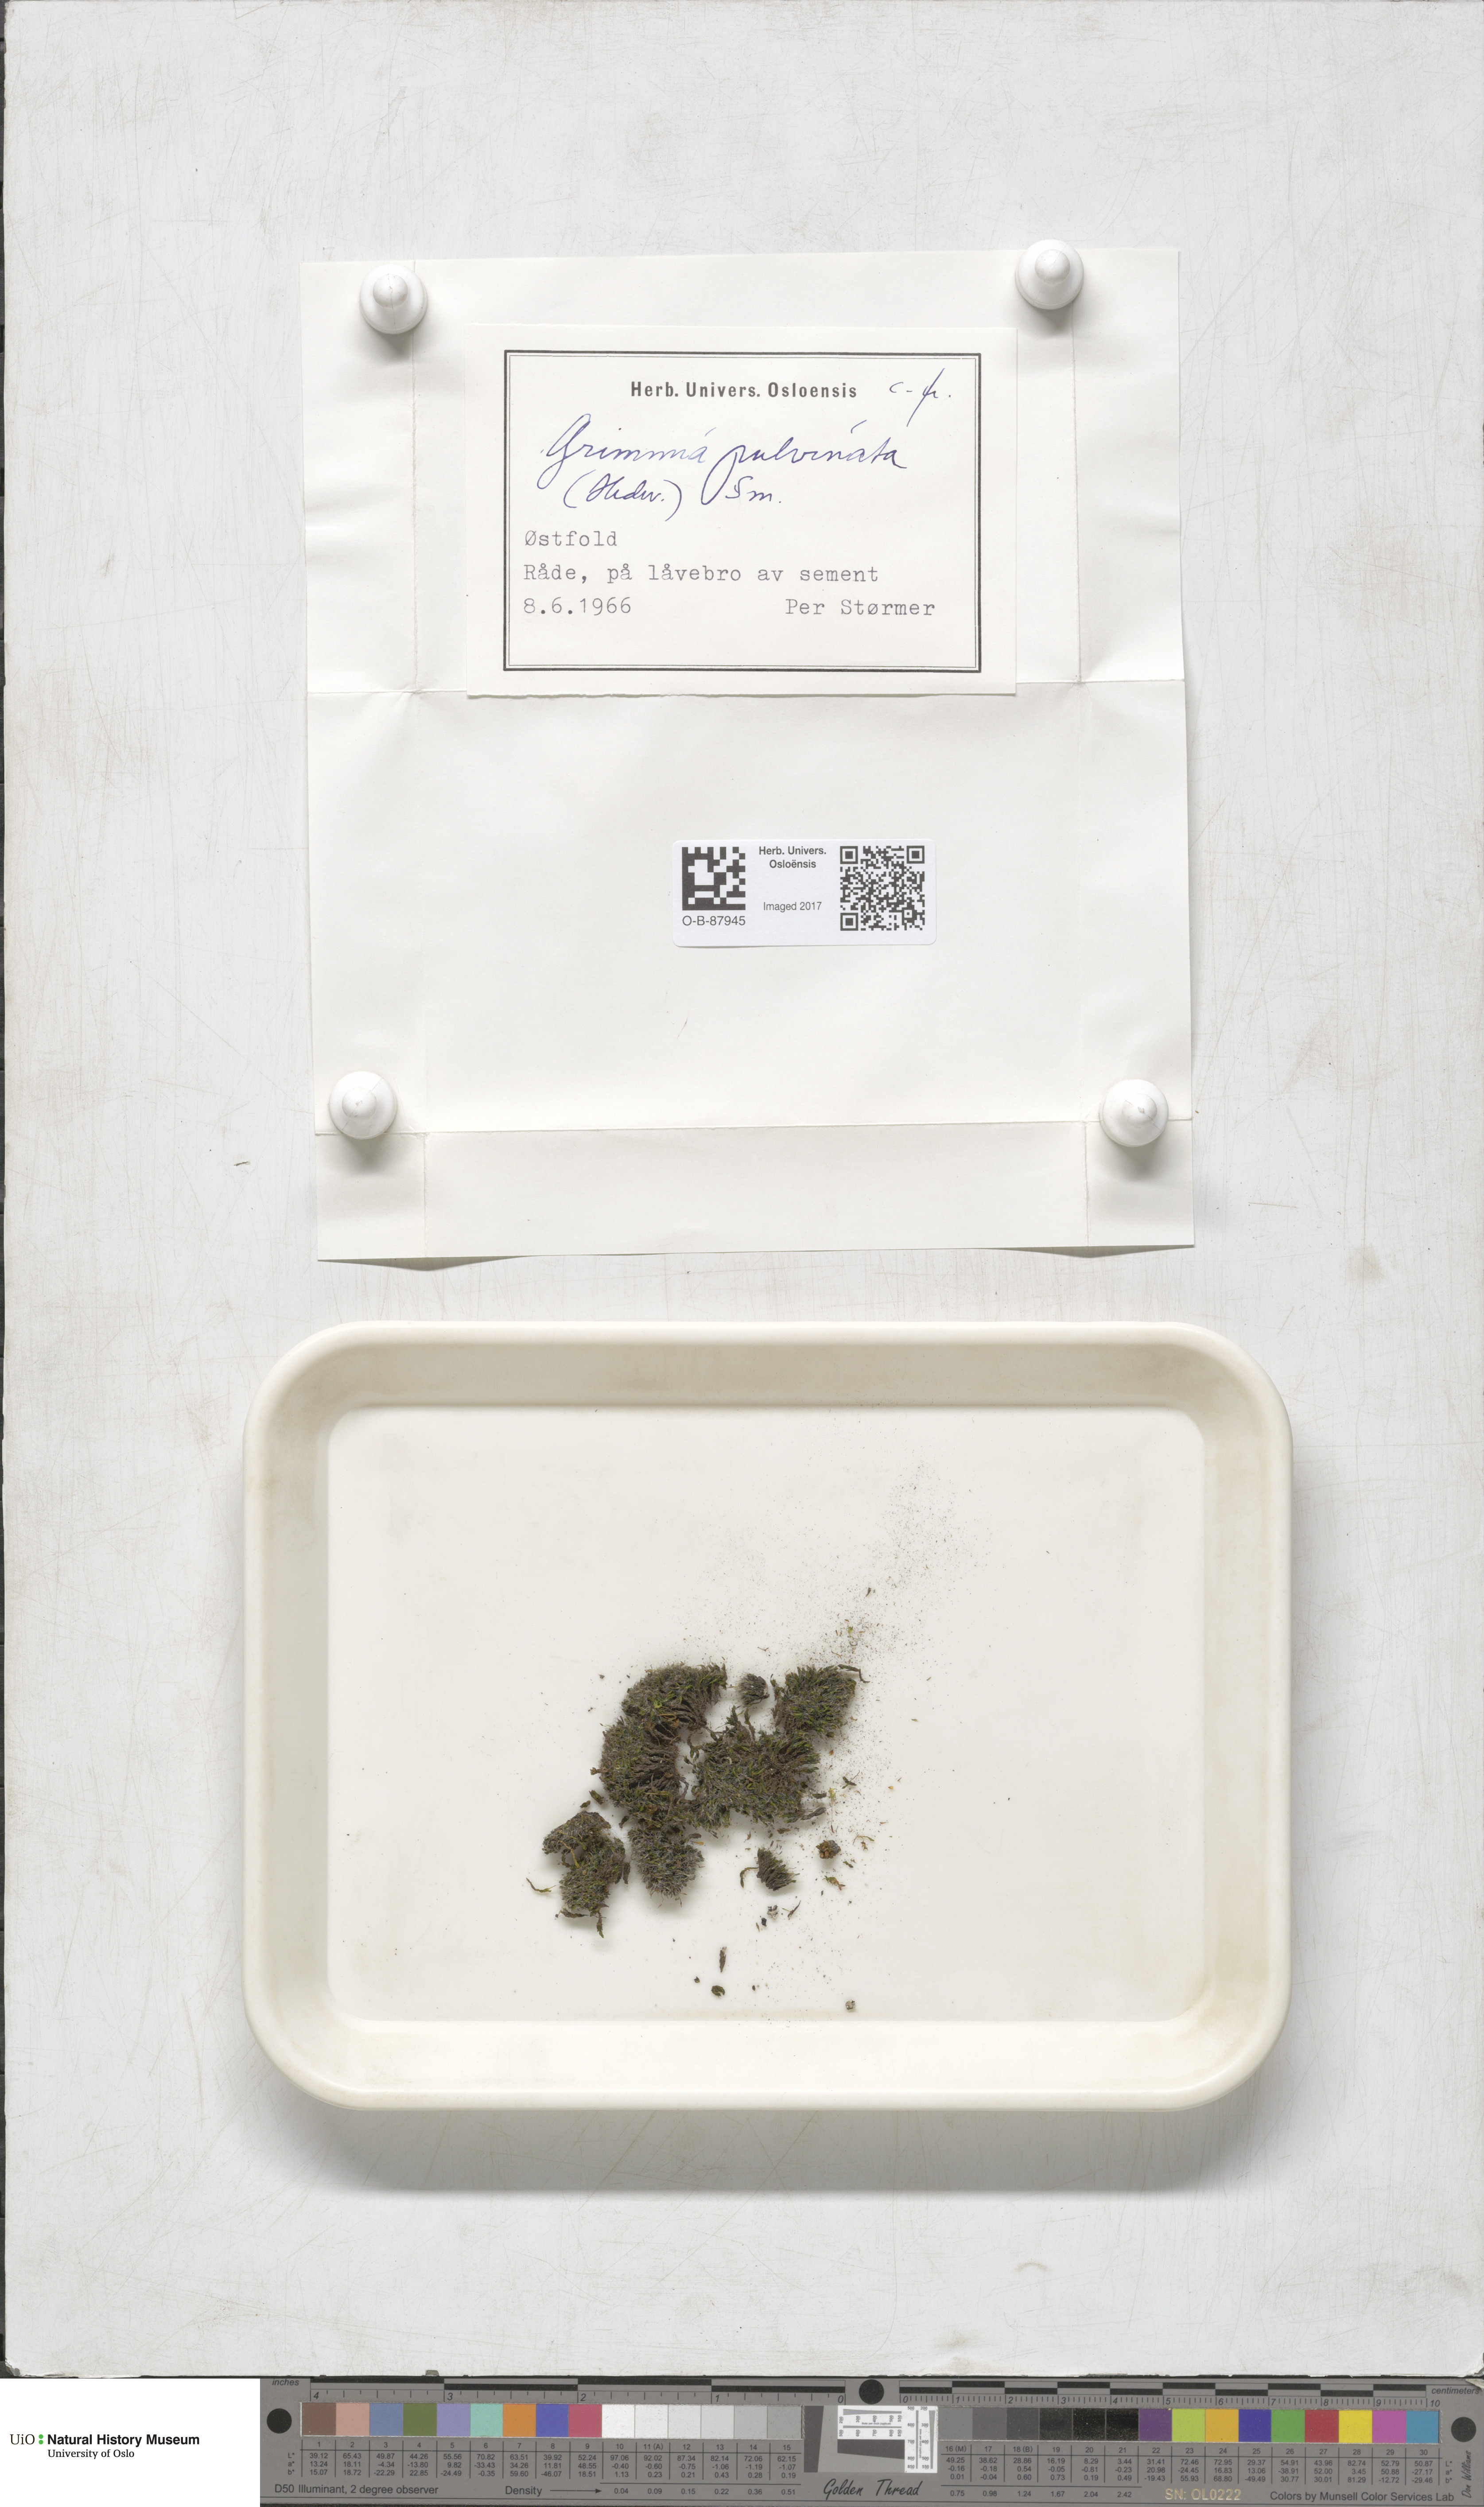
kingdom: Plantae
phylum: Bryophyta
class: Bryopsida
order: Grimmiales
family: Grimmiaceae
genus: Grimmia
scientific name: Grimmia pulvinata
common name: Grey-cushioned grimmia
